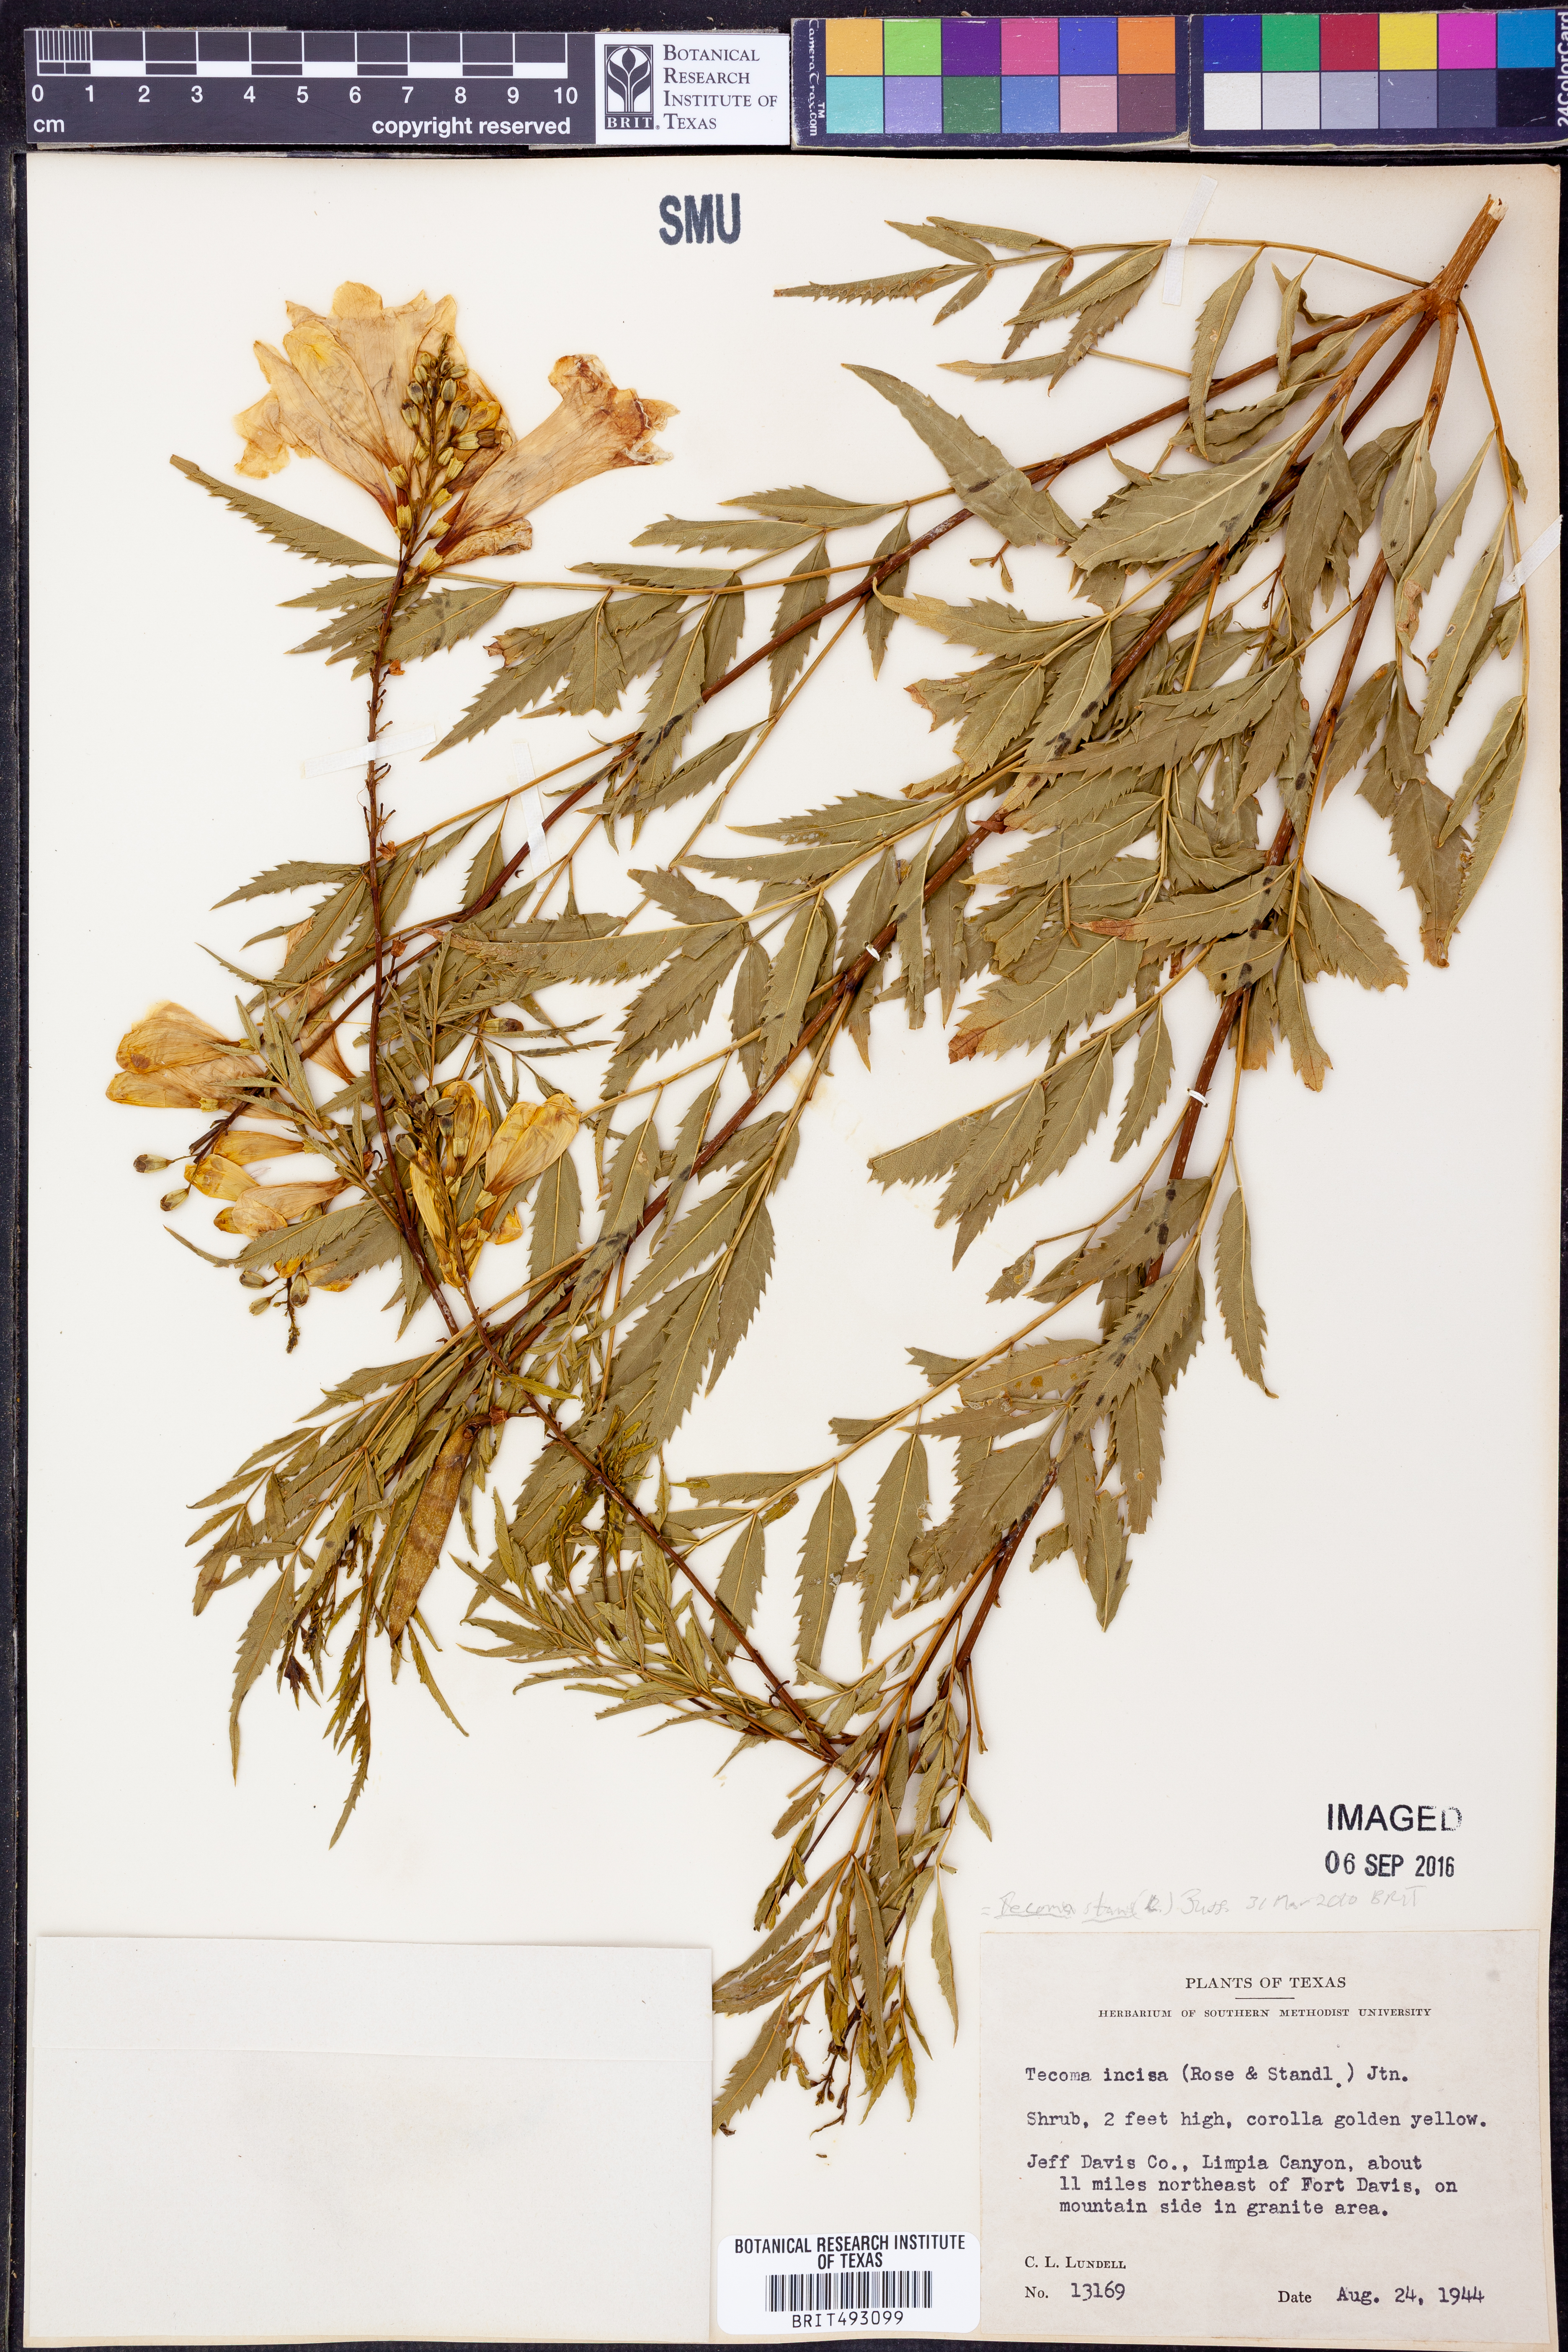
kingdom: Plantae
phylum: Tracheophyta
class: Magnoliopsida
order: Lamiales
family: Bignoniaceae
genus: Tecoma
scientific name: Tecoma stans
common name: Yellow trumpetbush
